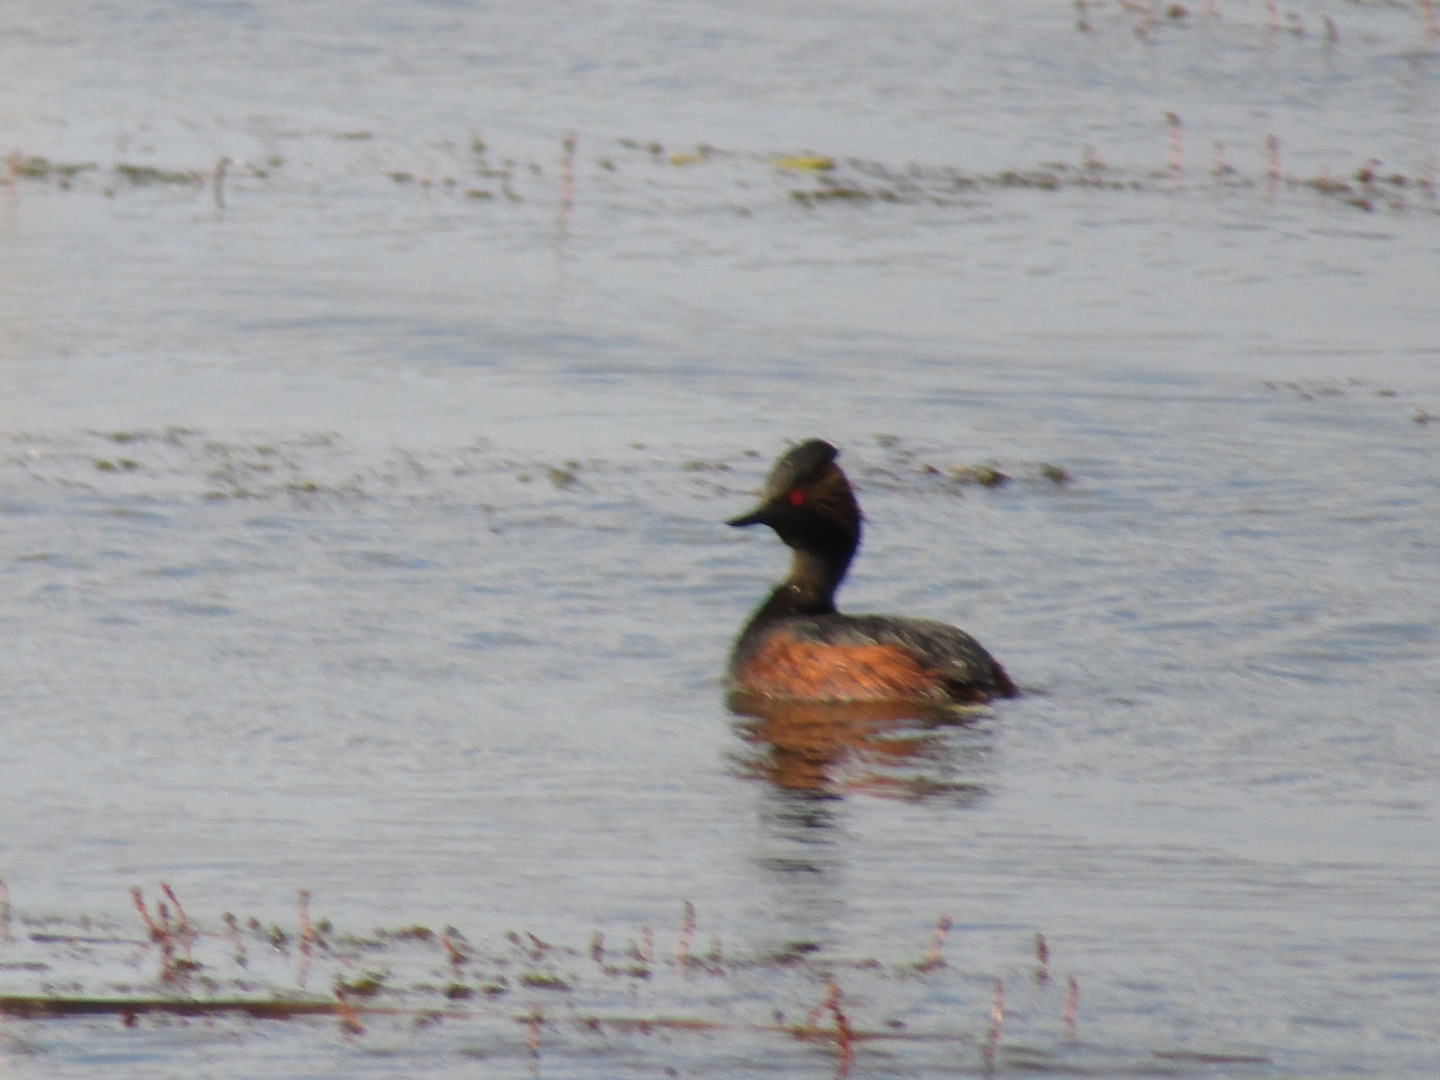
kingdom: Animalia
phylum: Chordata
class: Aves
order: Podicipediformes
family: Podicipedidae
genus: Podiceps
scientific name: Podiceps nigricollis
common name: Sorthalset lappedykker
